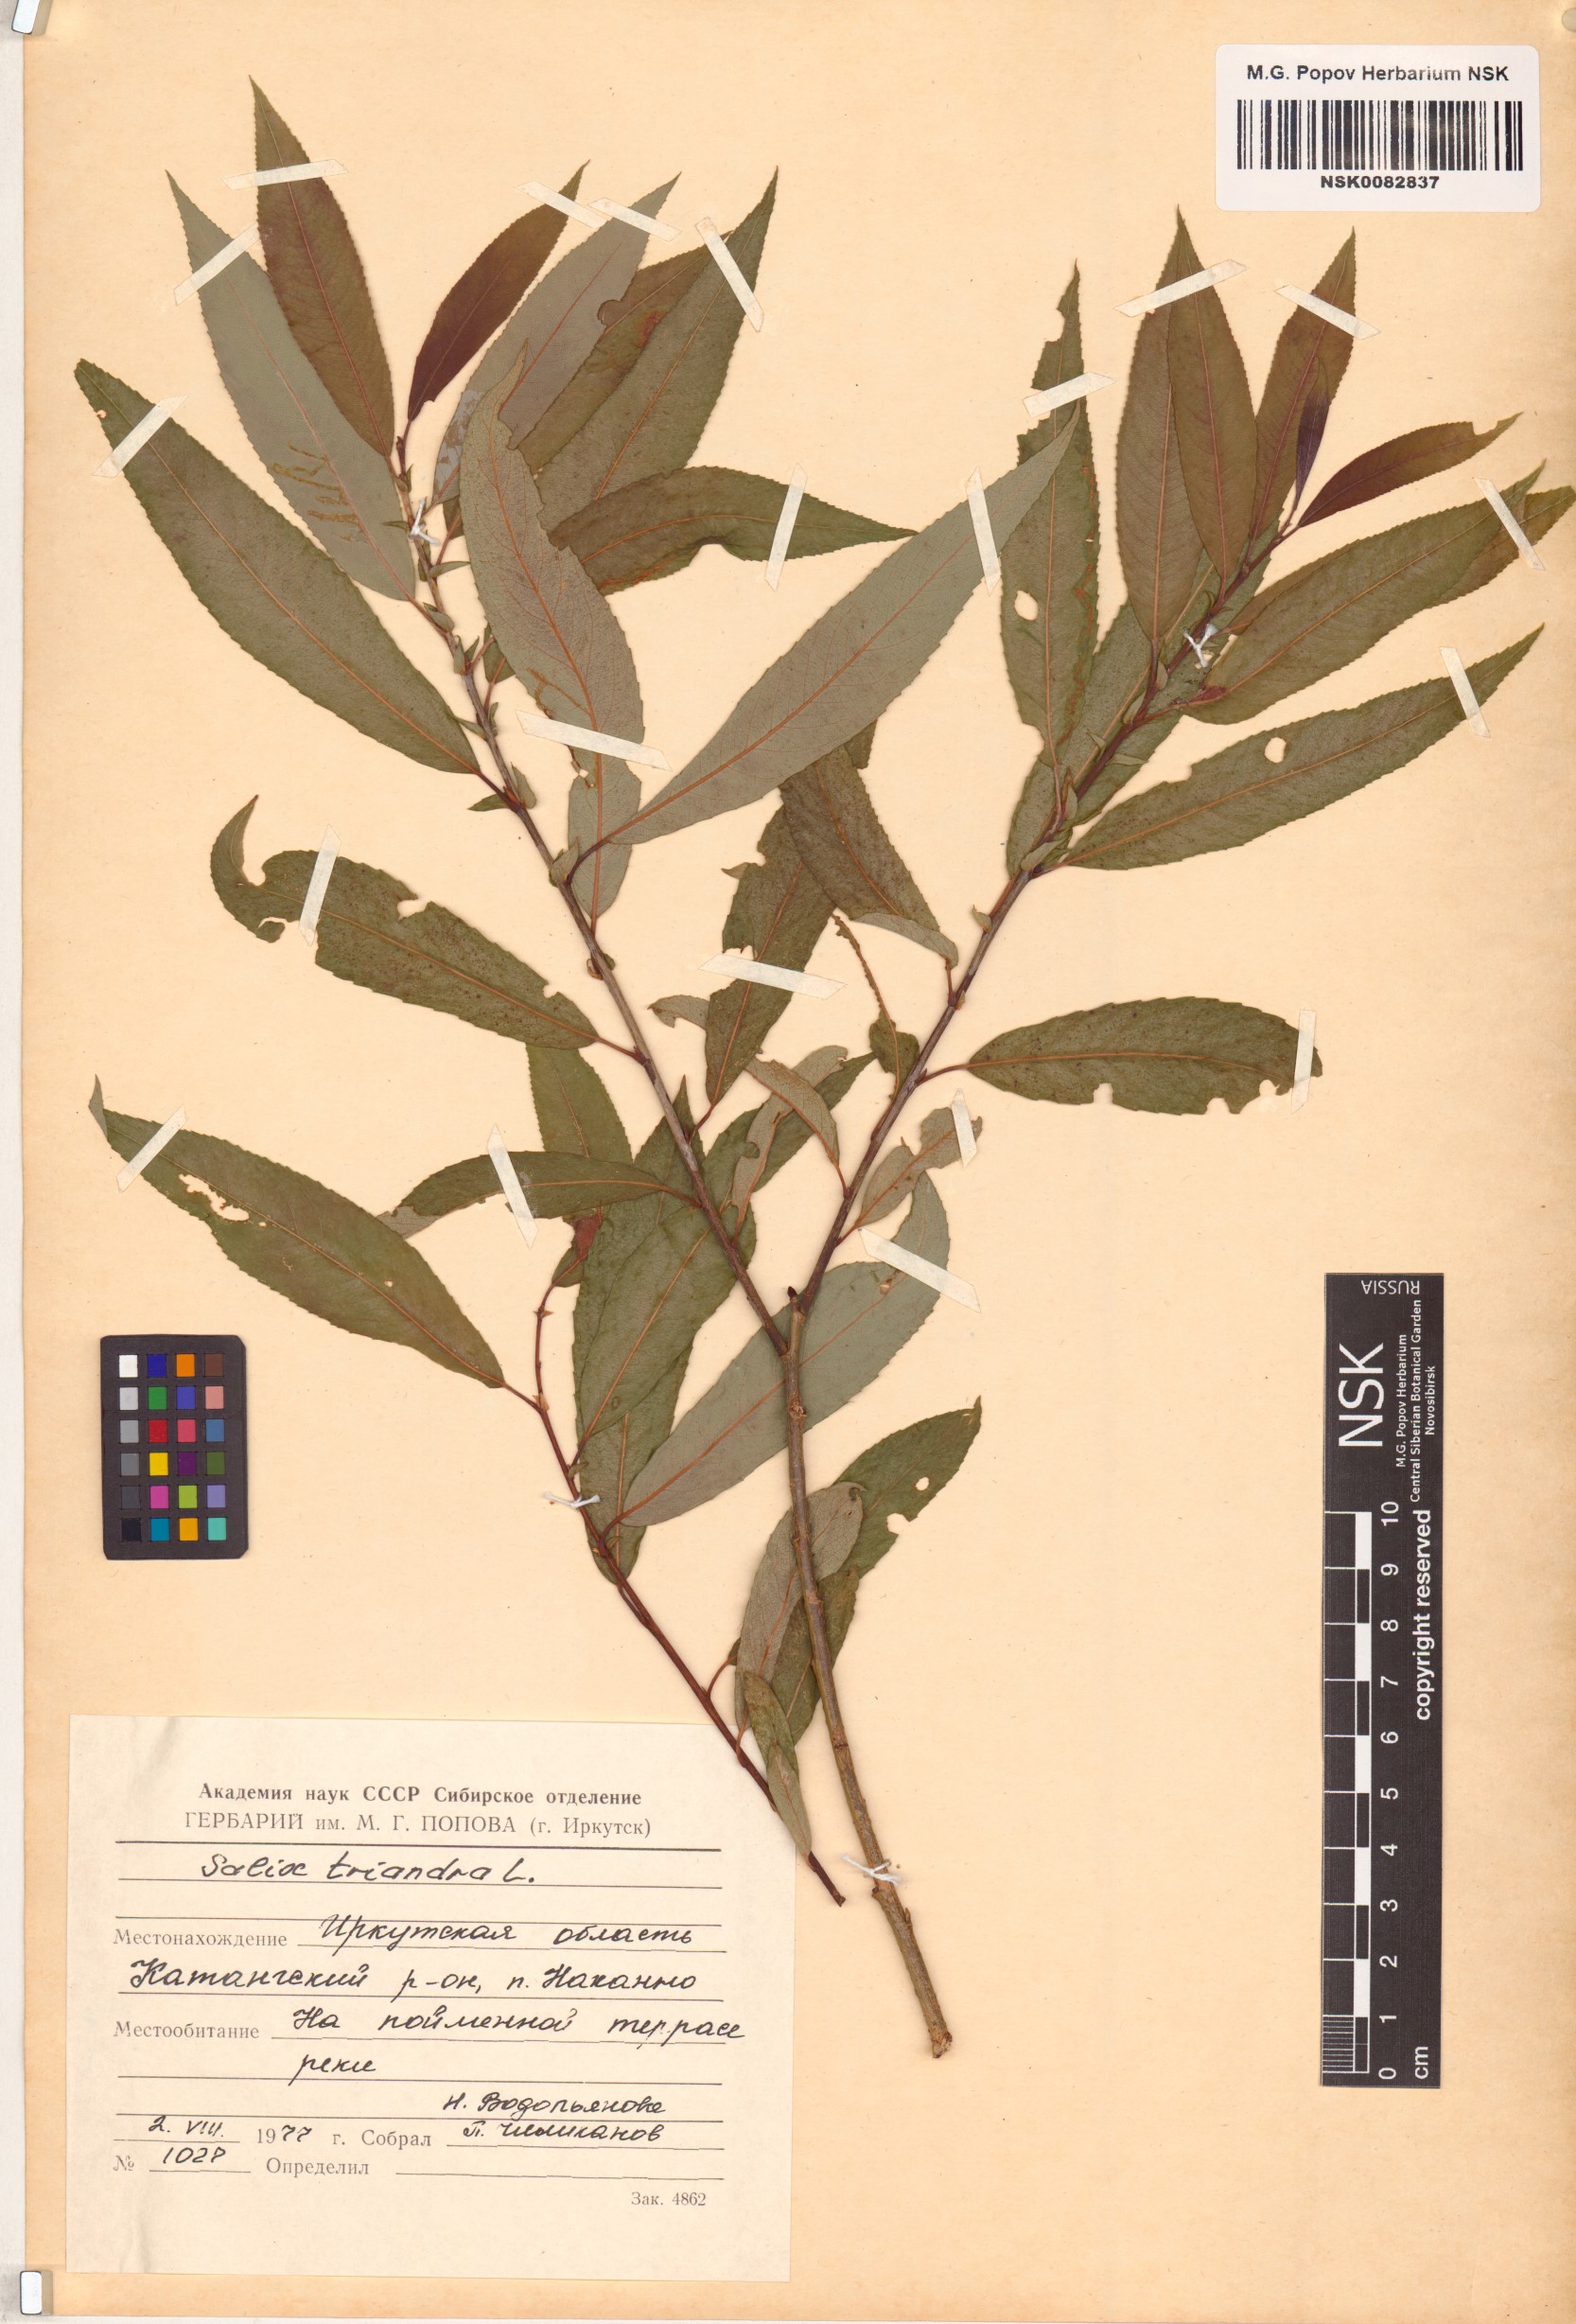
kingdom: Plantae
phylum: Tracheophyta
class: Magnoliopsida
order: Malpighiales
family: Salicaceae
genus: Salix
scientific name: Salix triandra
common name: Almond willow
